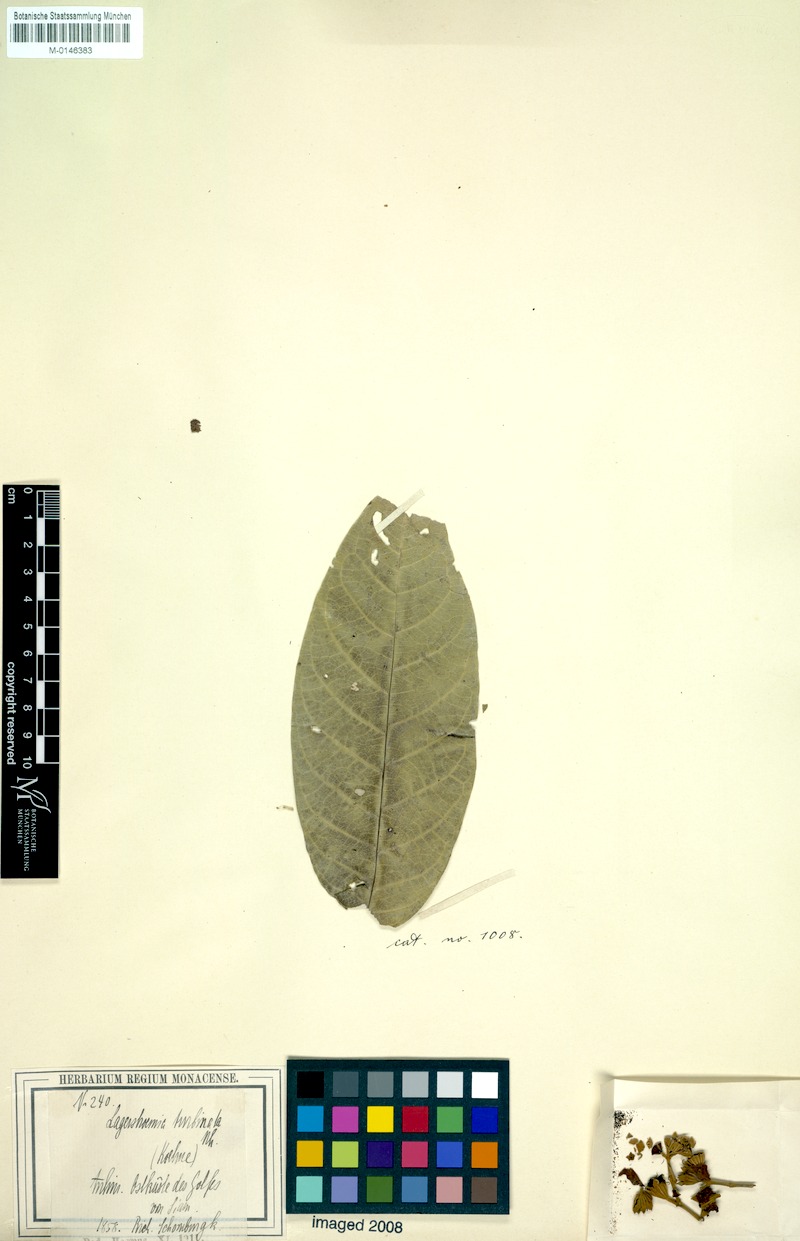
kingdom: Plantae
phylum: Tracheophyta
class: Magnoliopsida
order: Myrtales
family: Lythraceae
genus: Lagerstroemia
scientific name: Lagerstroemia floribunda
